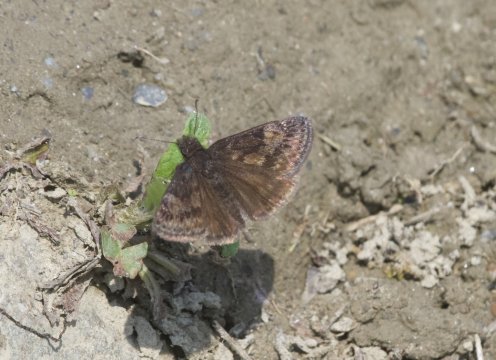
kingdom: Animalia
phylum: Arthropoda
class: Insecta
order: Lepidoptera
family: Hesperiidae
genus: Gesta
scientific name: Gesta
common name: Wild Indigo Duskywing
